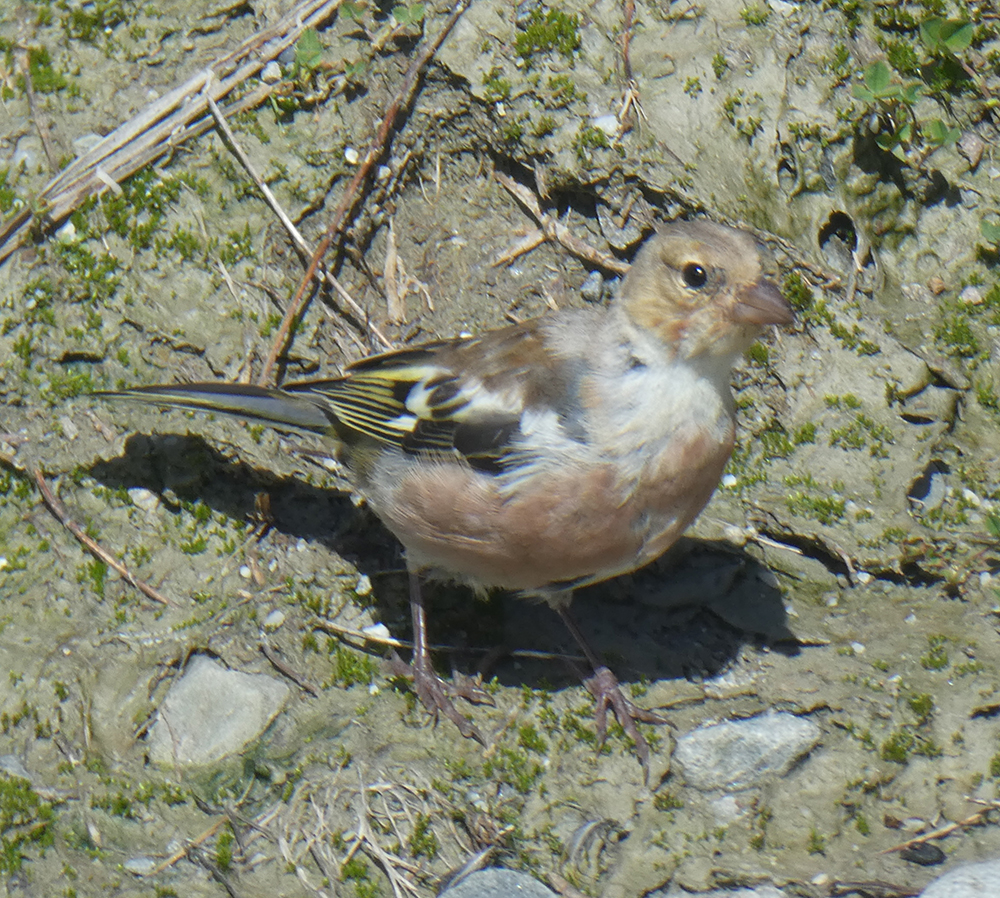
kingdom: Animalia
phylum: Chordata
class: Aves
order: Passeriformes
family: Fringillidae
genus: Fringilla
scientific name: Fringilla coelebs
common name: Common chaffinch
